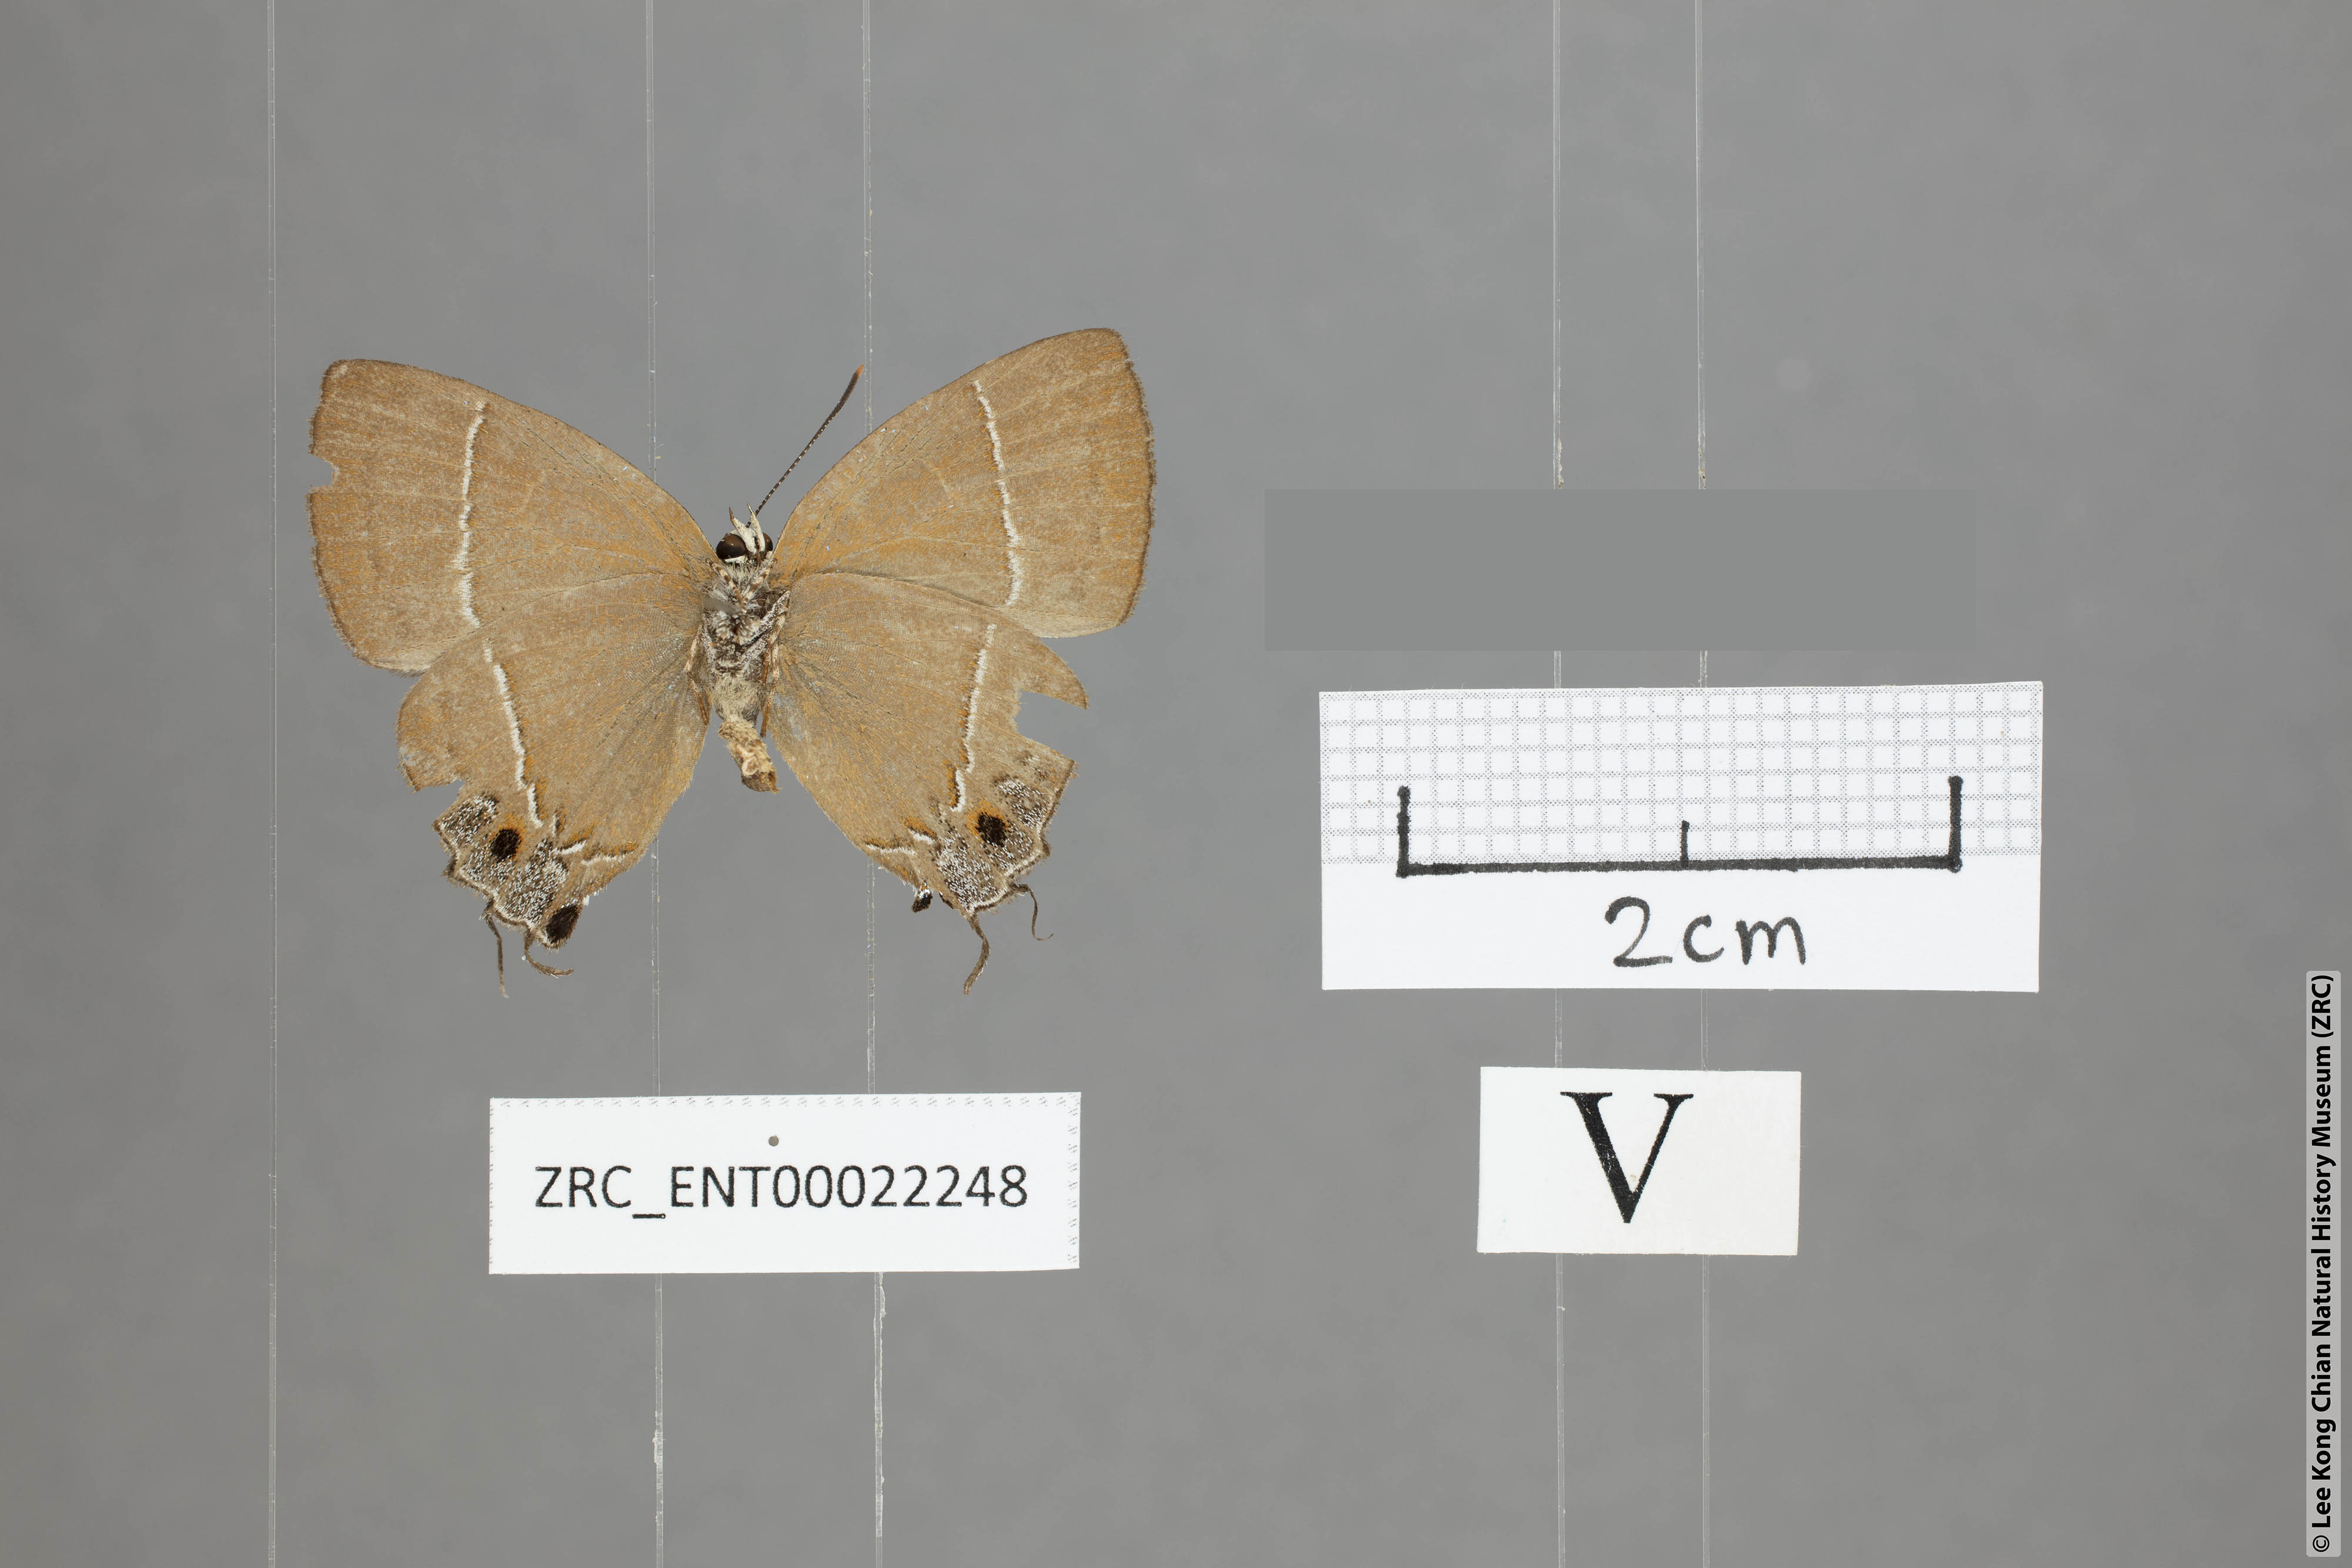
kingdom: Animalia
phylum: Arthropoda
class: Insecta
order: Lepidoptera
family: Lycaenidae
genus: Tajuria
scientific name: Tajuria yajna
